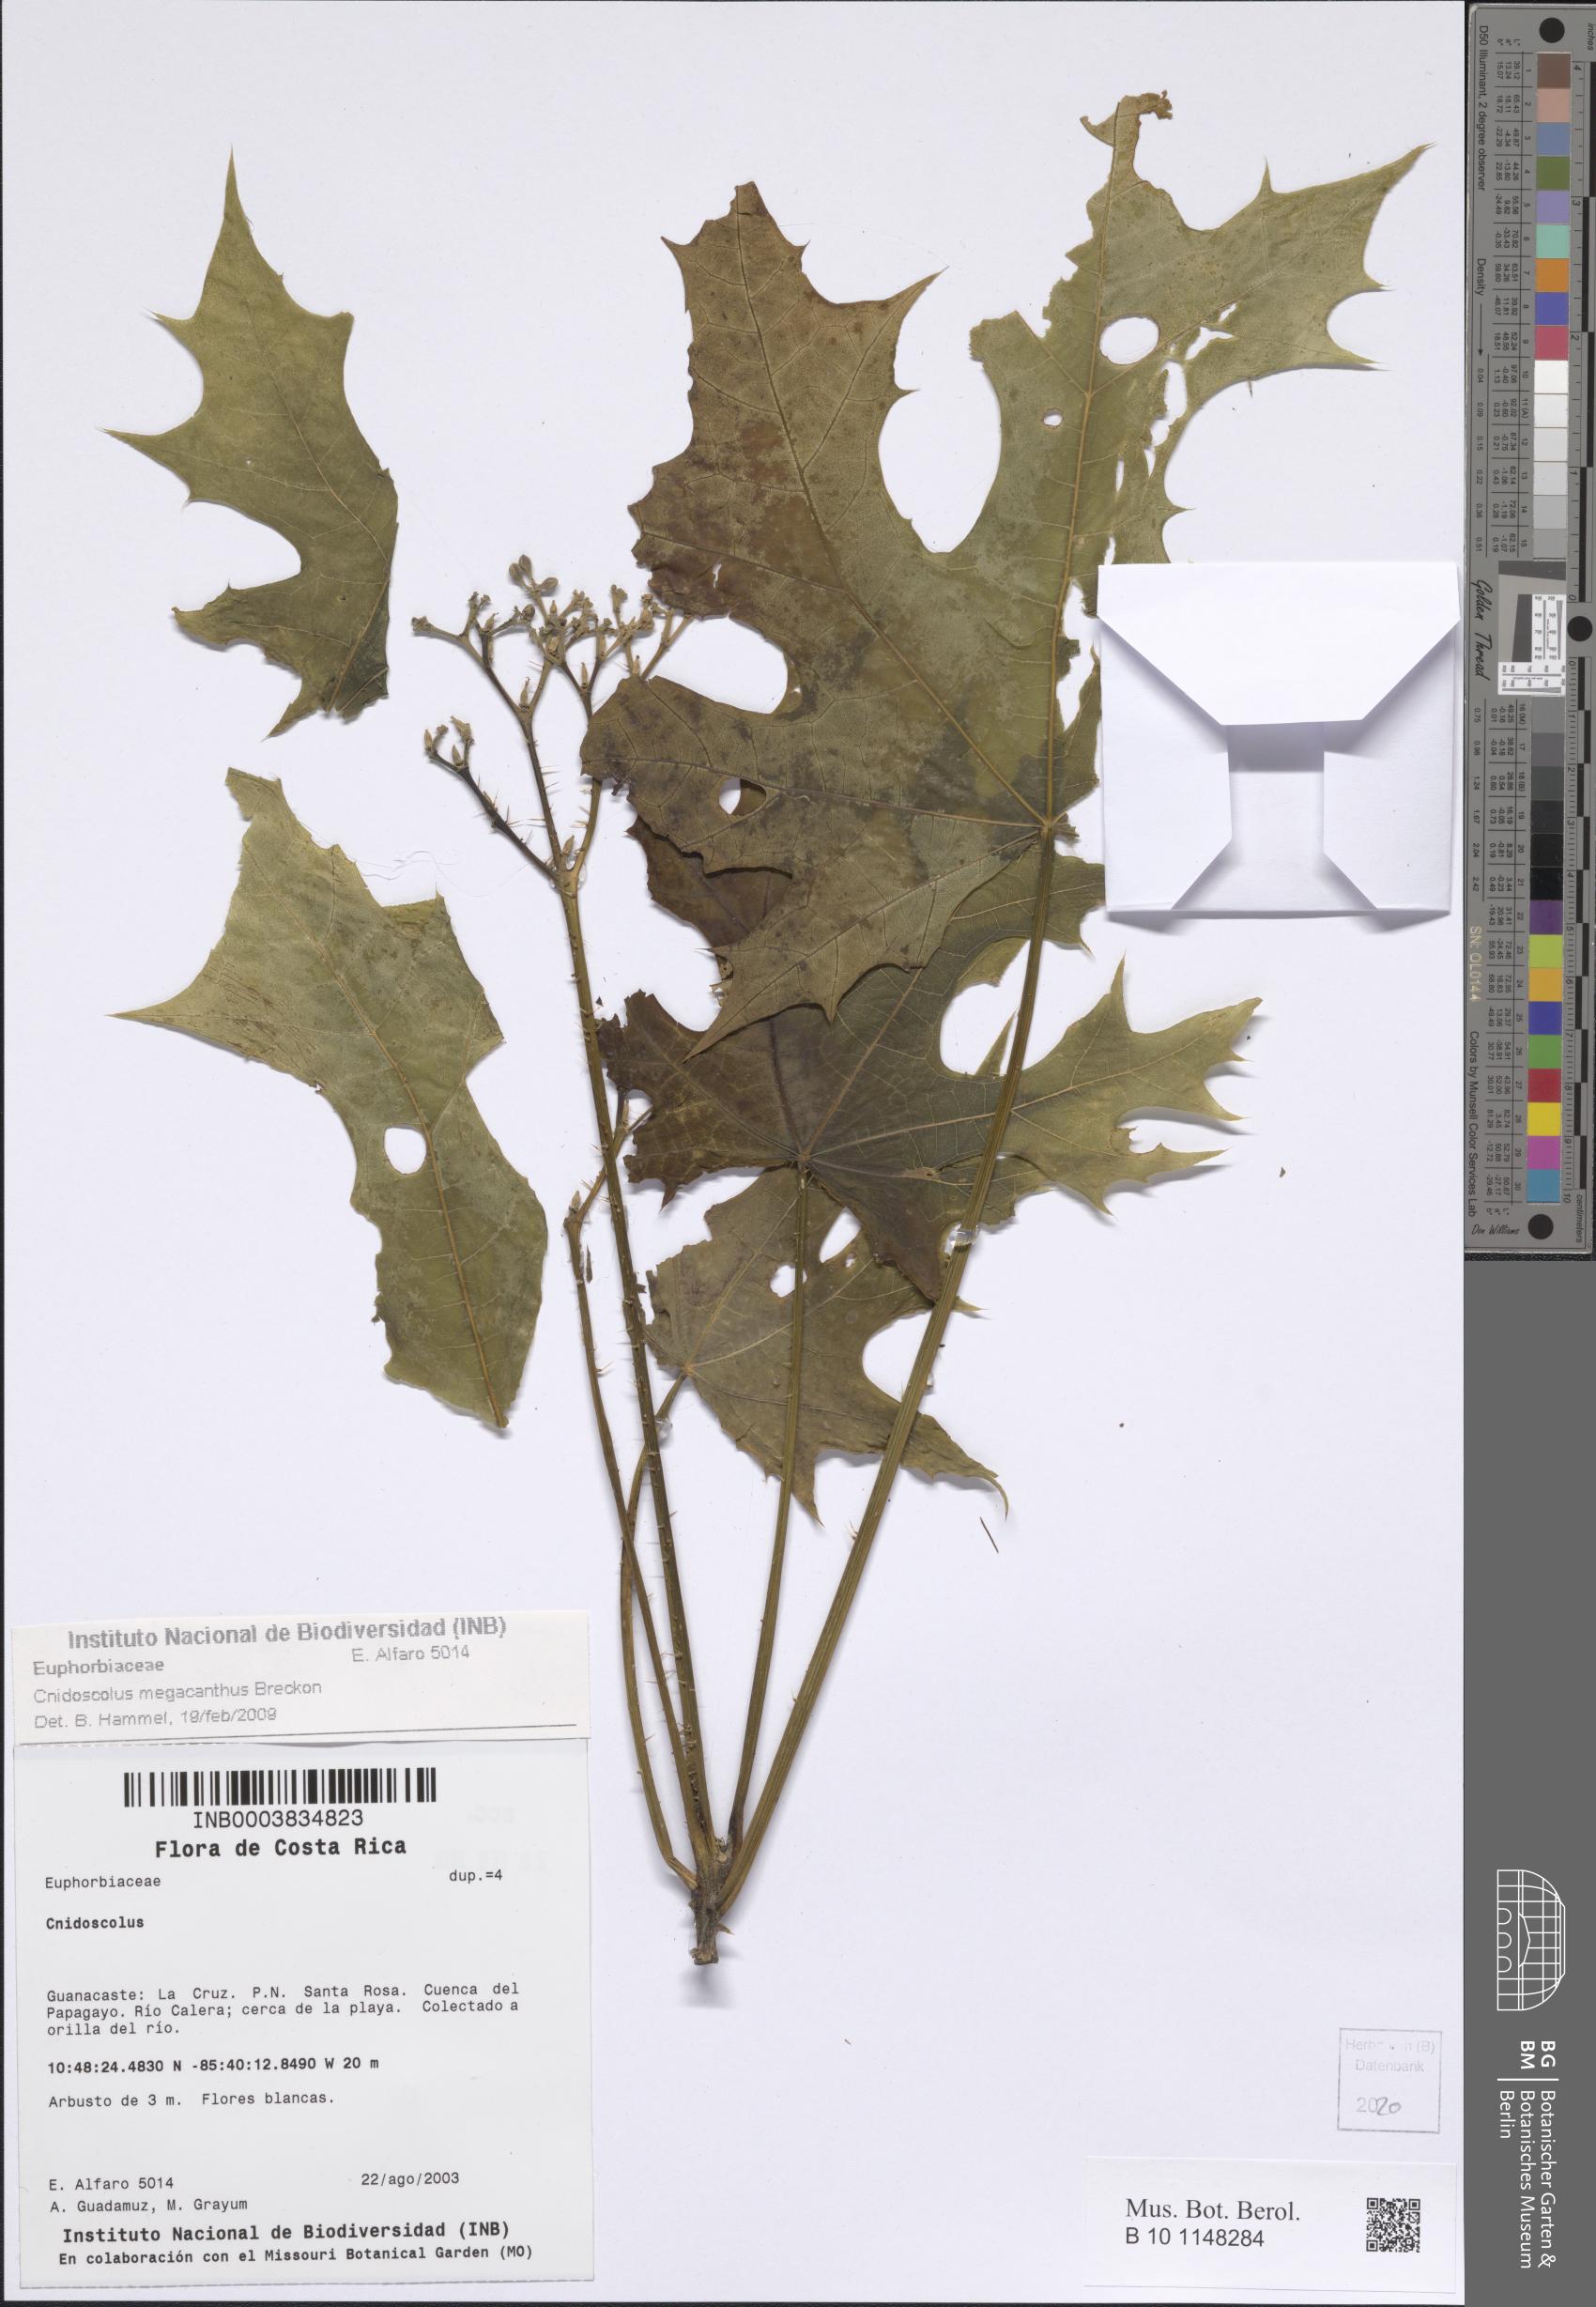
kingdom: Plantae
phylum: Tracheophyta
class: Magnoliopsida
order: Malpighiales
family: Euphorbiaceae
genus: Cnidoscolus
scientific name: Cnidoscolus megacanthus
